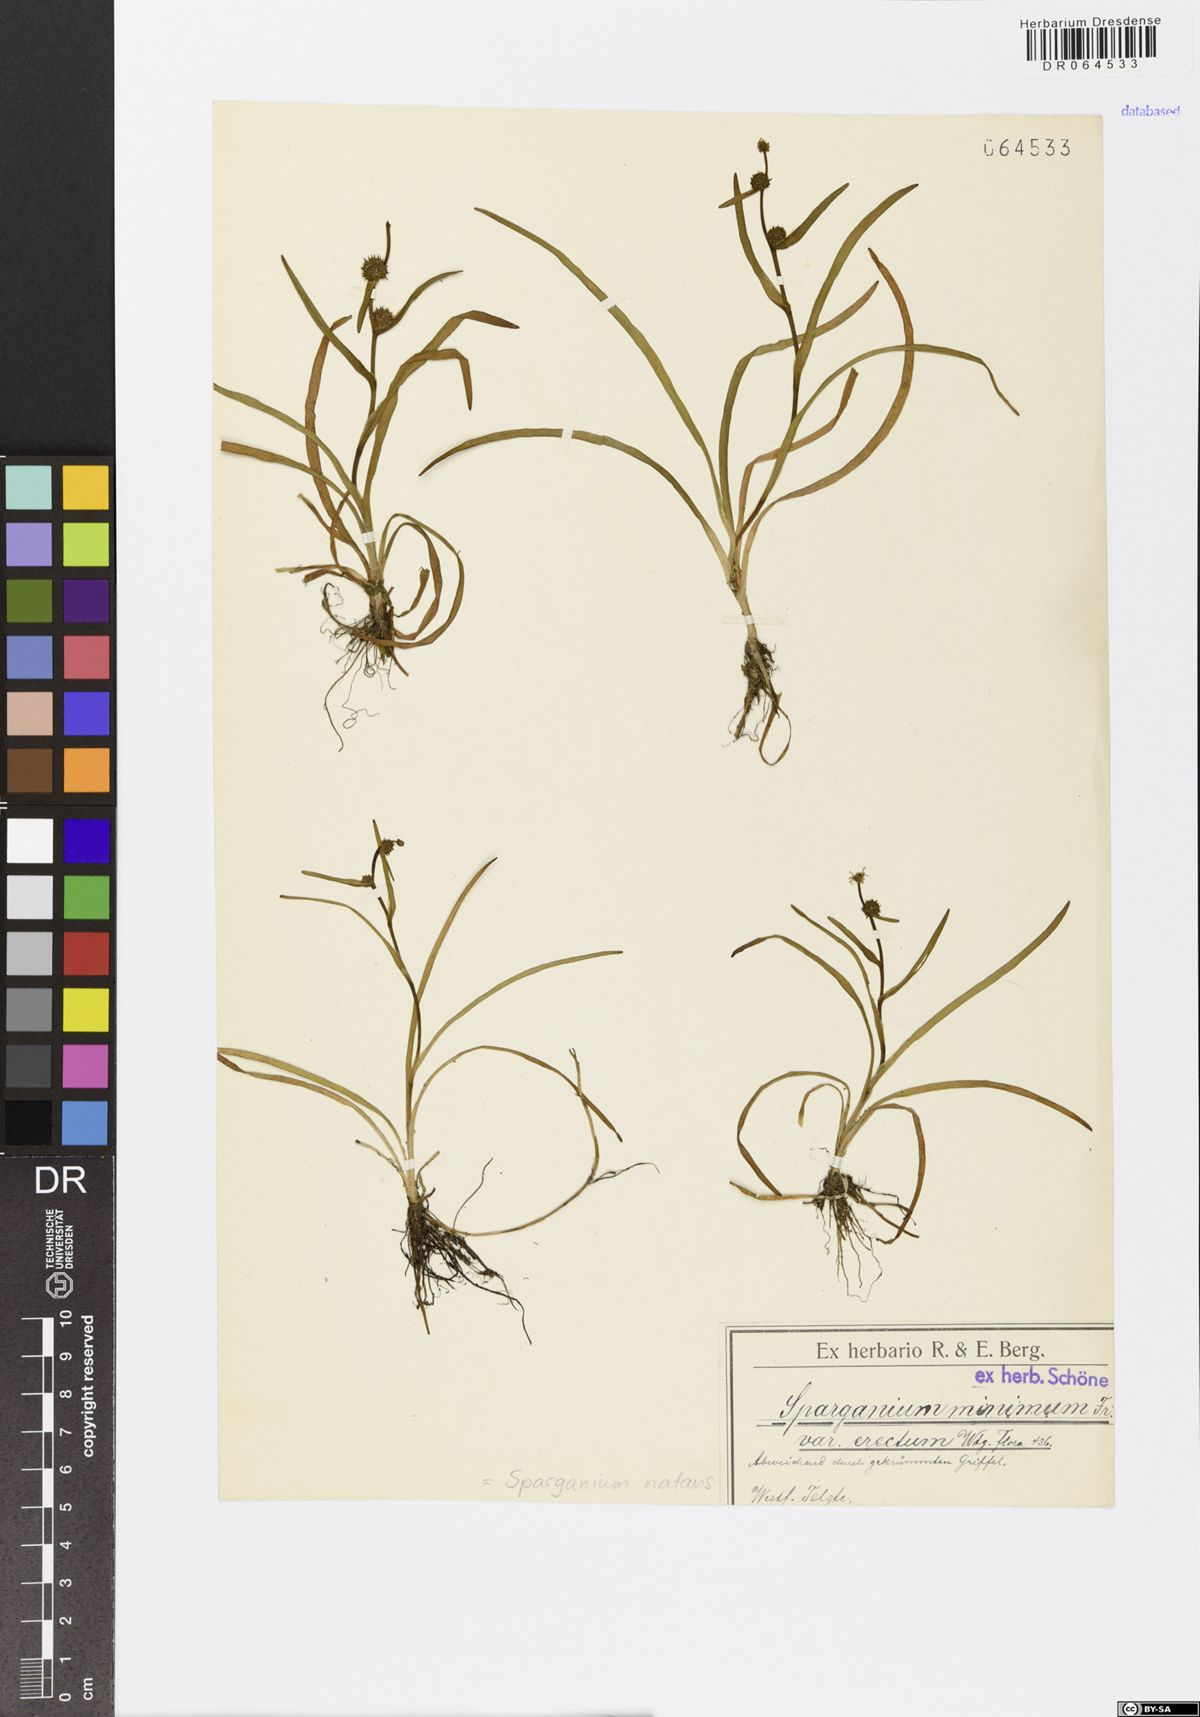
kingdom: Plantae
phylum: Tracheophyta
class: Liliopsida
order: Poales
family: Typhaceae
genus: Sparganium
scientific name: Sparganium natans
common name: Least bur-reed
